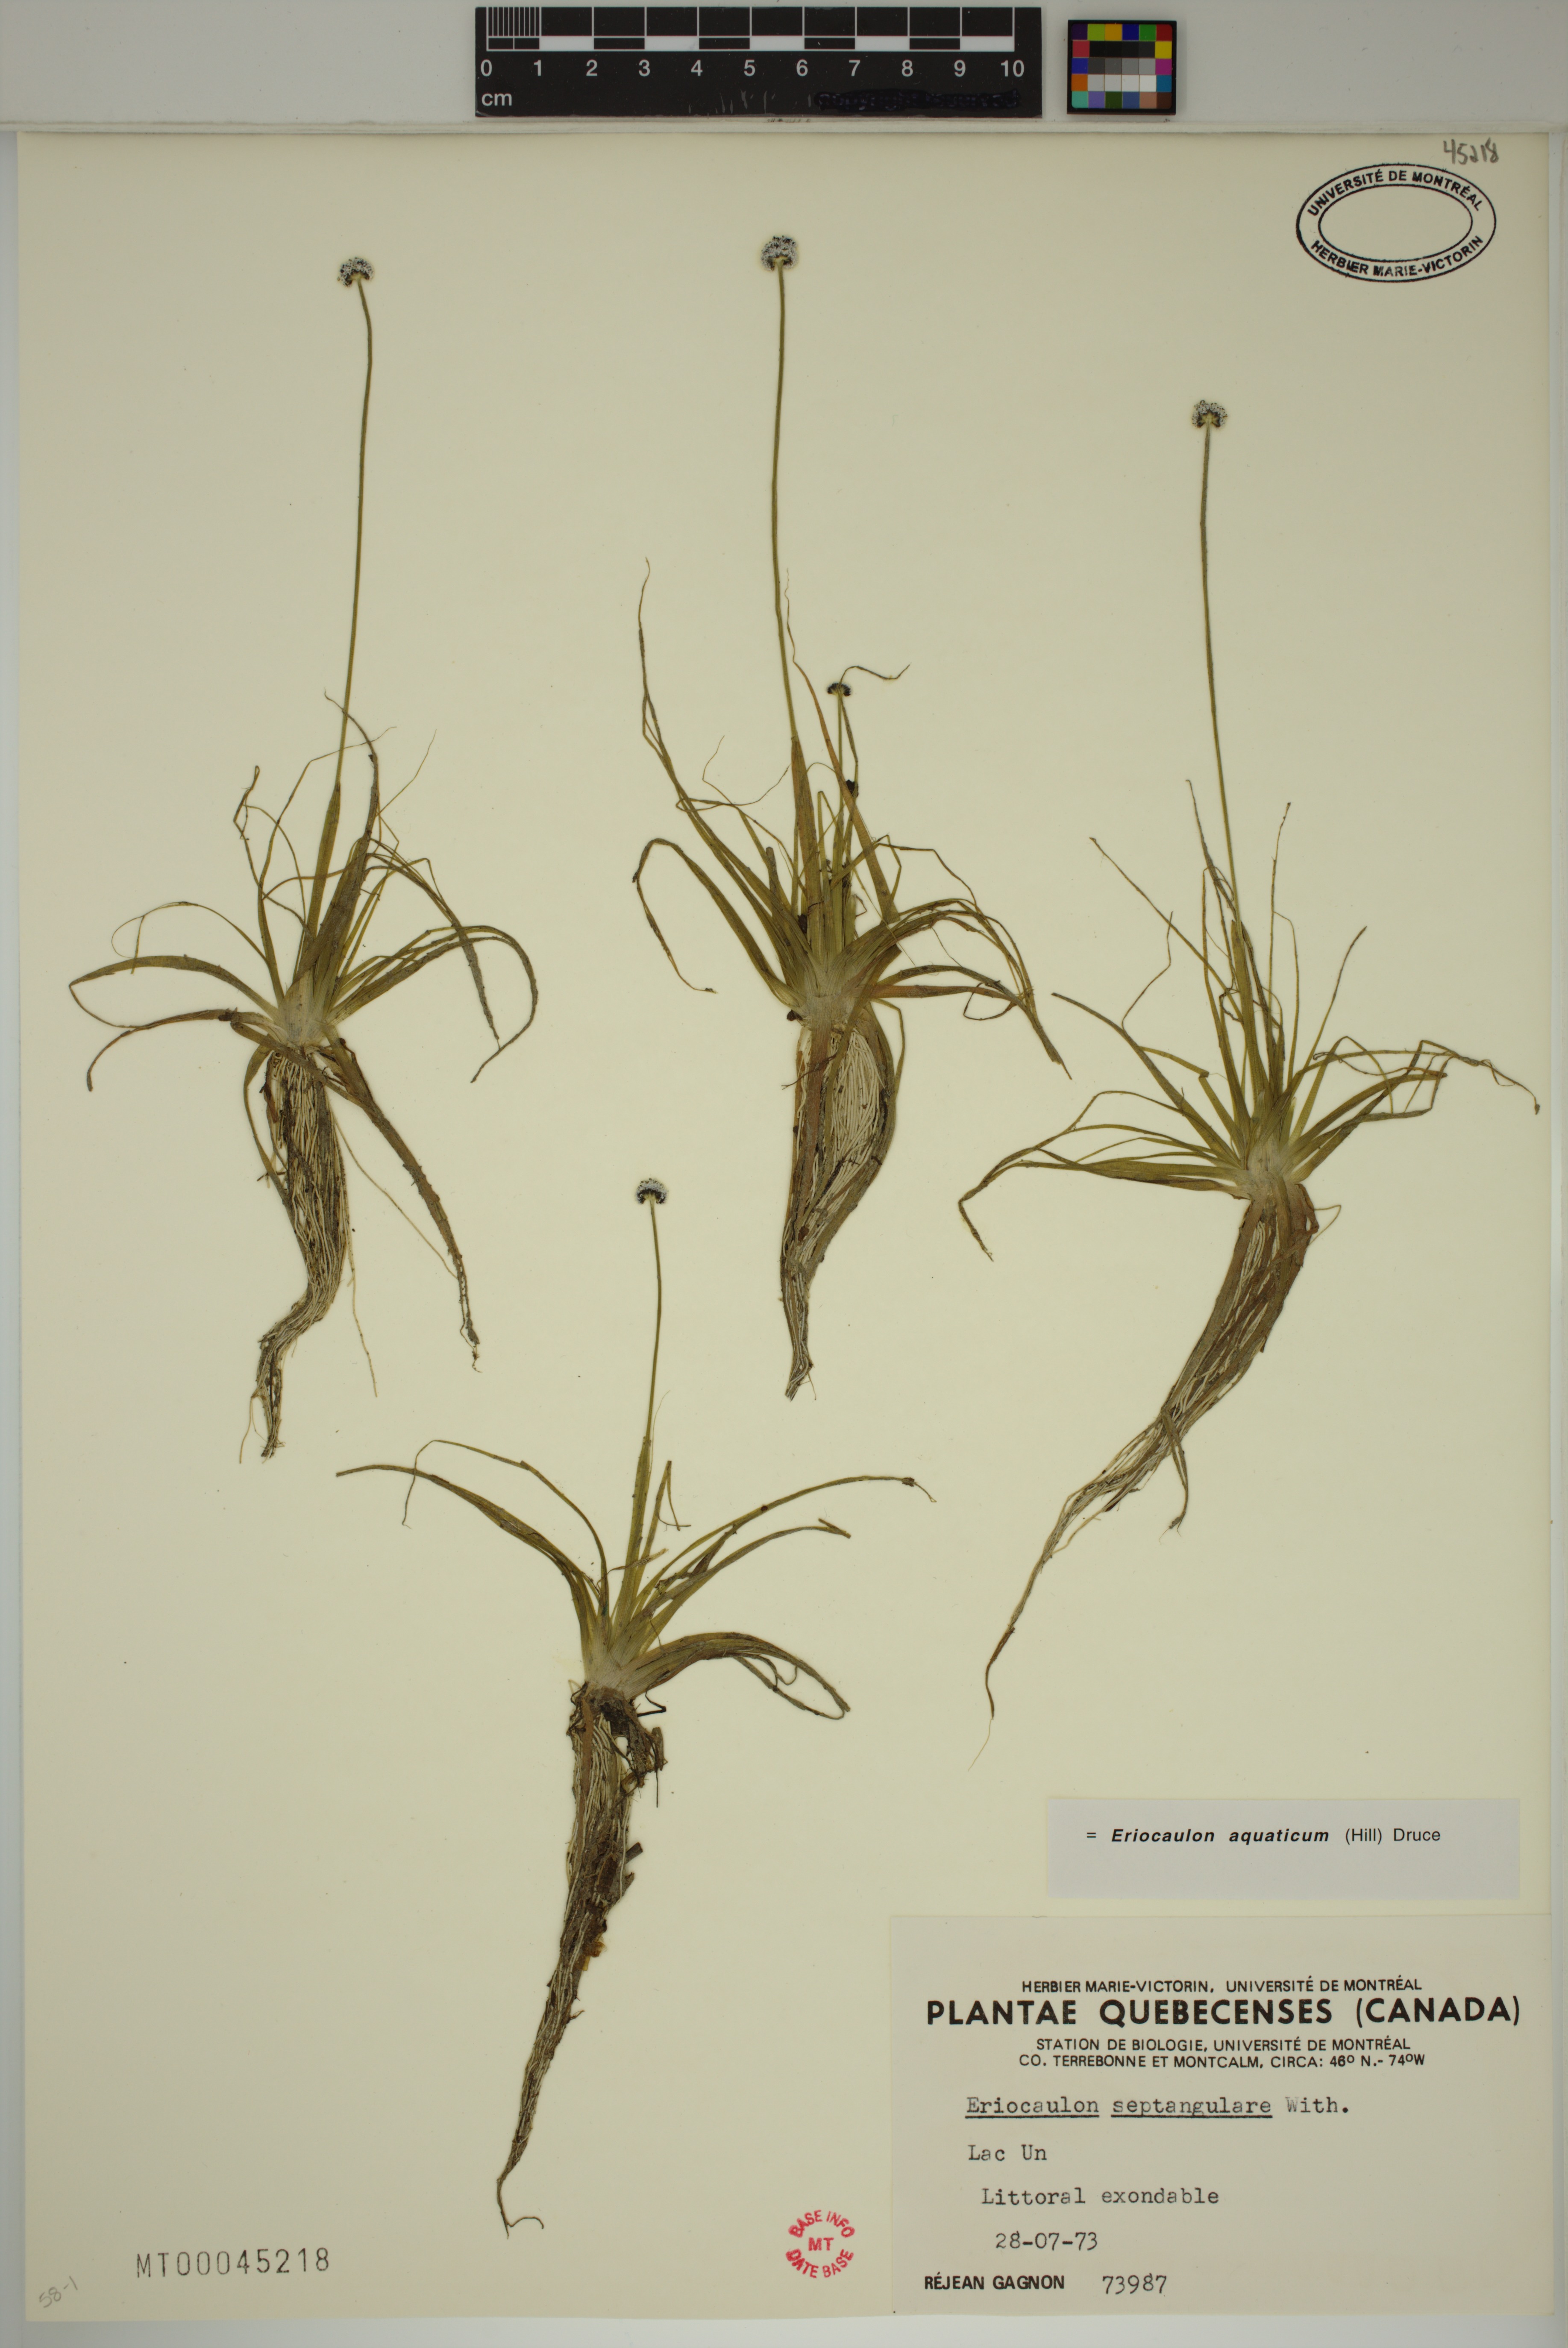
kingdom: Plantae
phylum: Tracheophyta
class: Liliopsida
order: Poales
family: Eriocaulaceae
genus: Eriocaulon
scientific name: Eriocaulon aquaticum
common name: Pipewort
